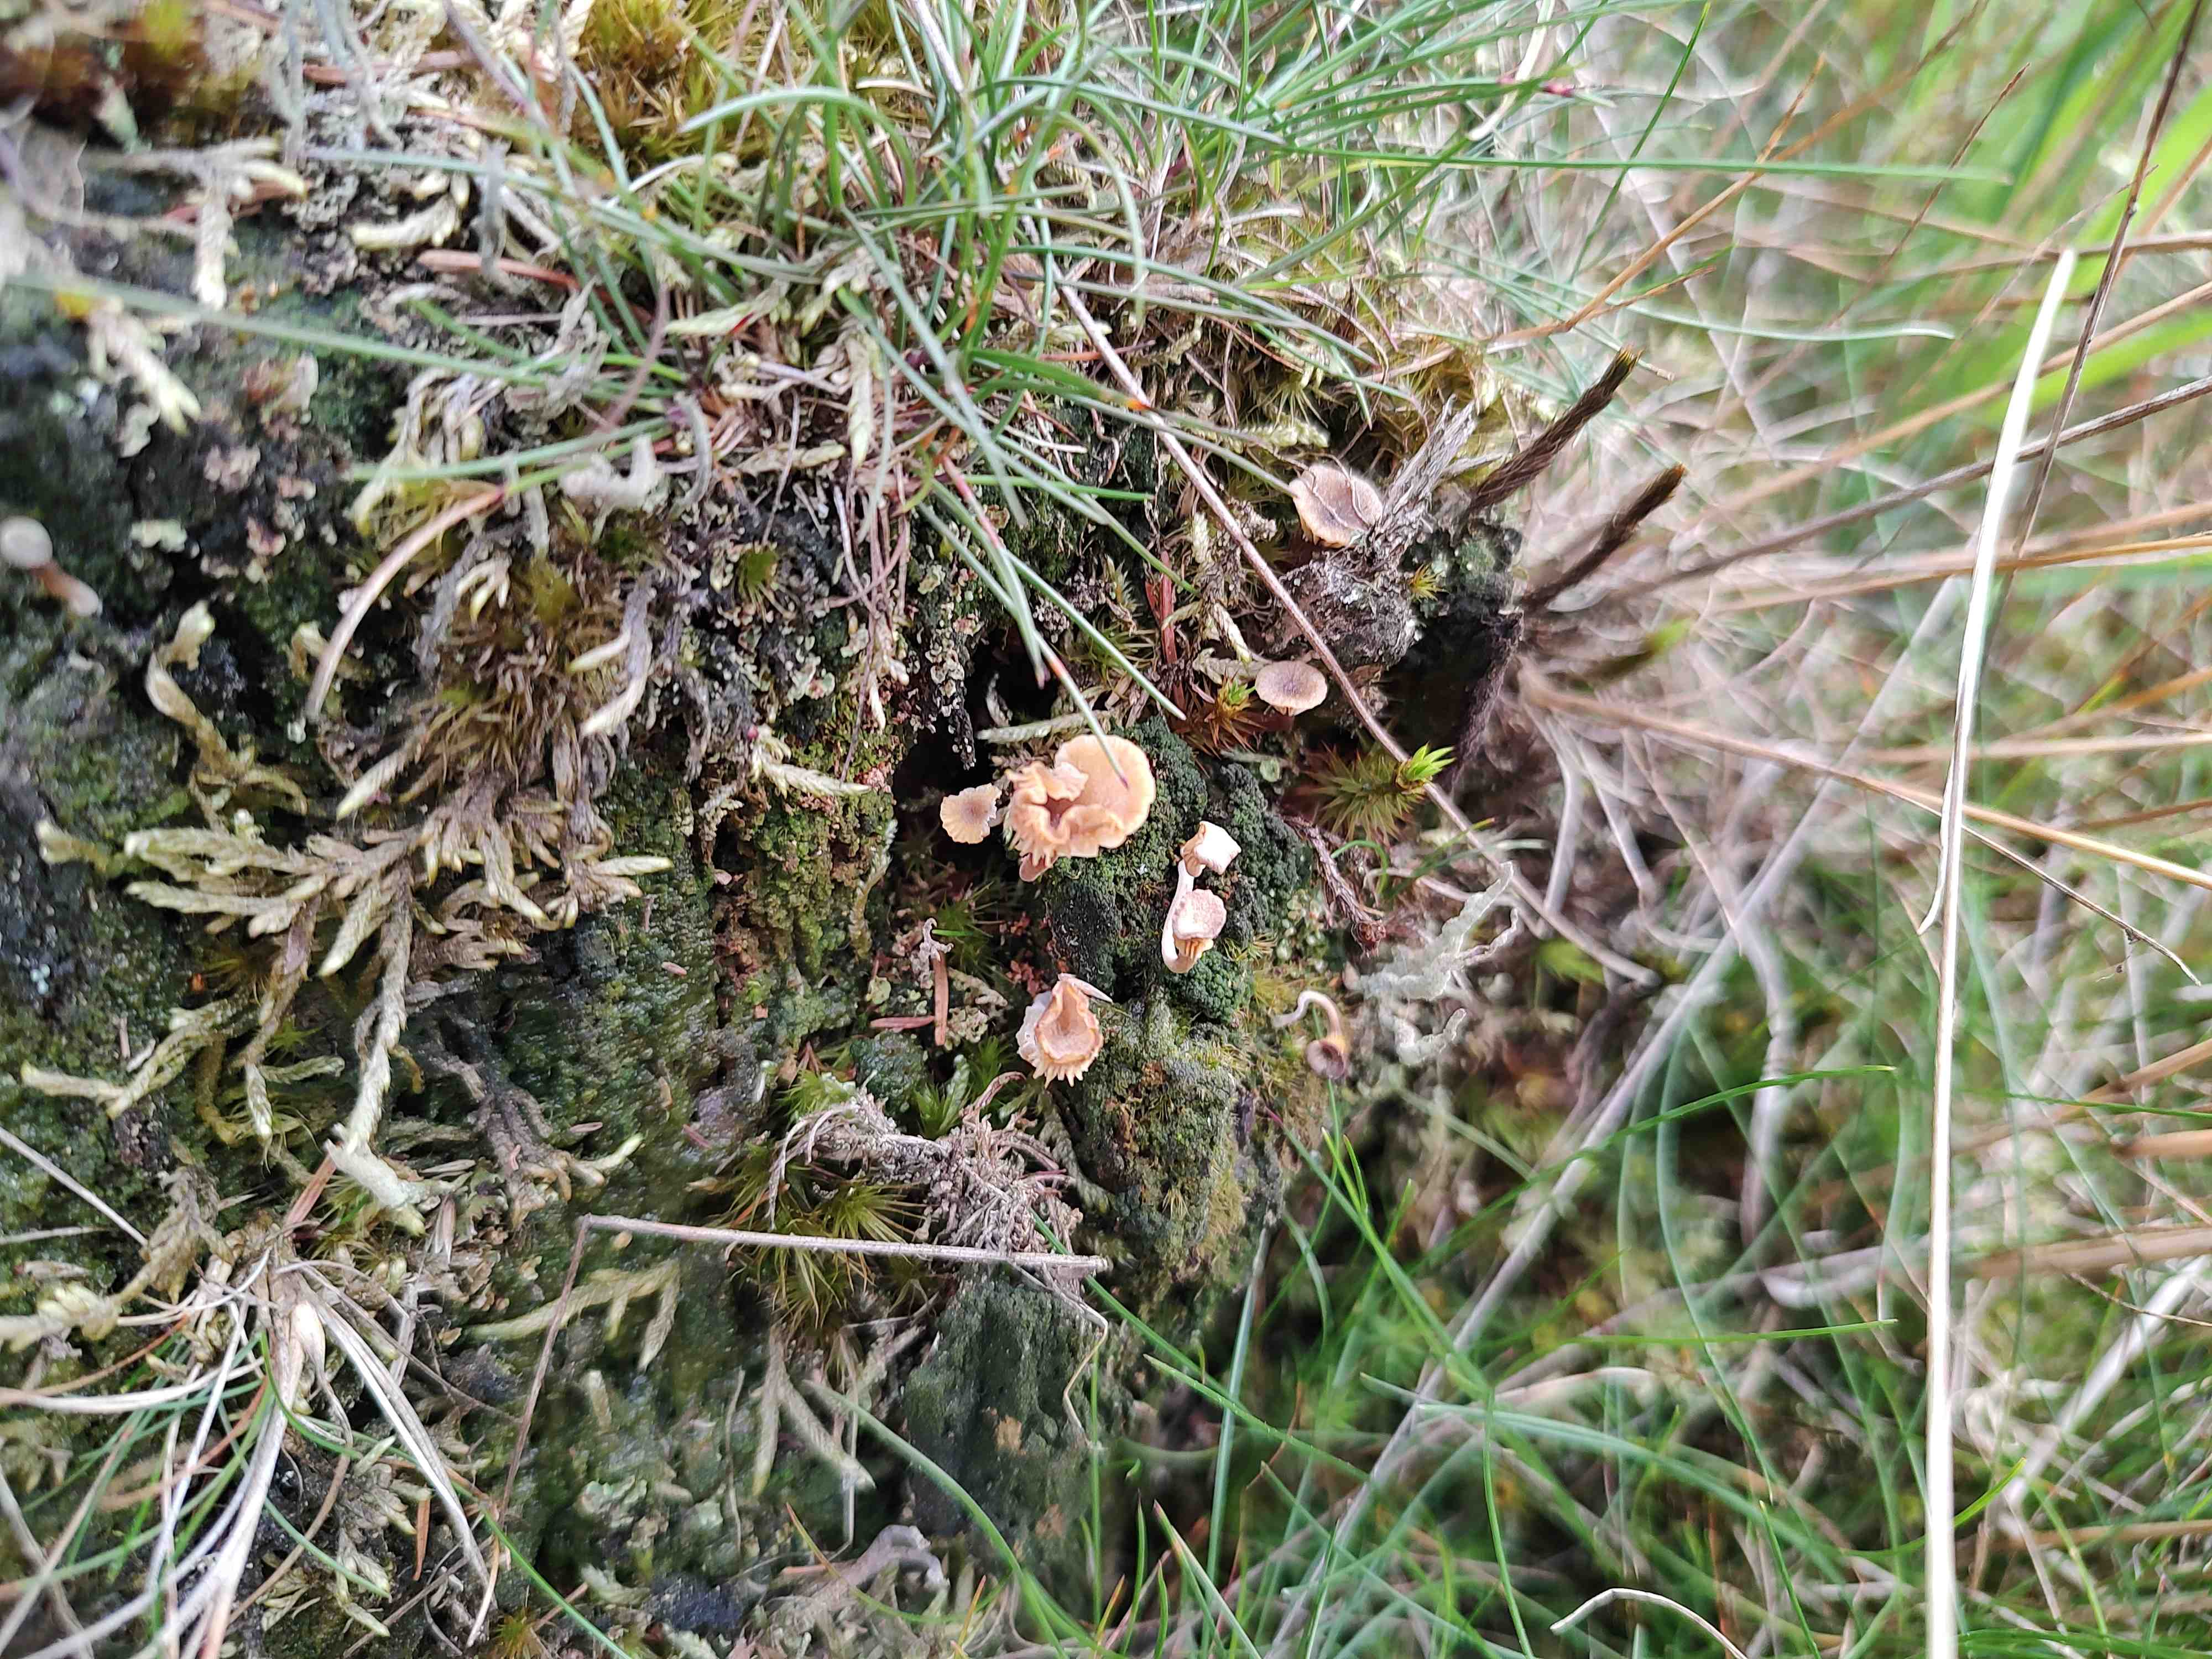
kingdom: Fungi
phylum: Basidiomycota
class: Agaricomycetes
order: Agaricales
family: Hygrophoraceae
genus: Lichenomphalia
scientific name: Lichenomphalia umbellifera
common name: tørve-lavhat
